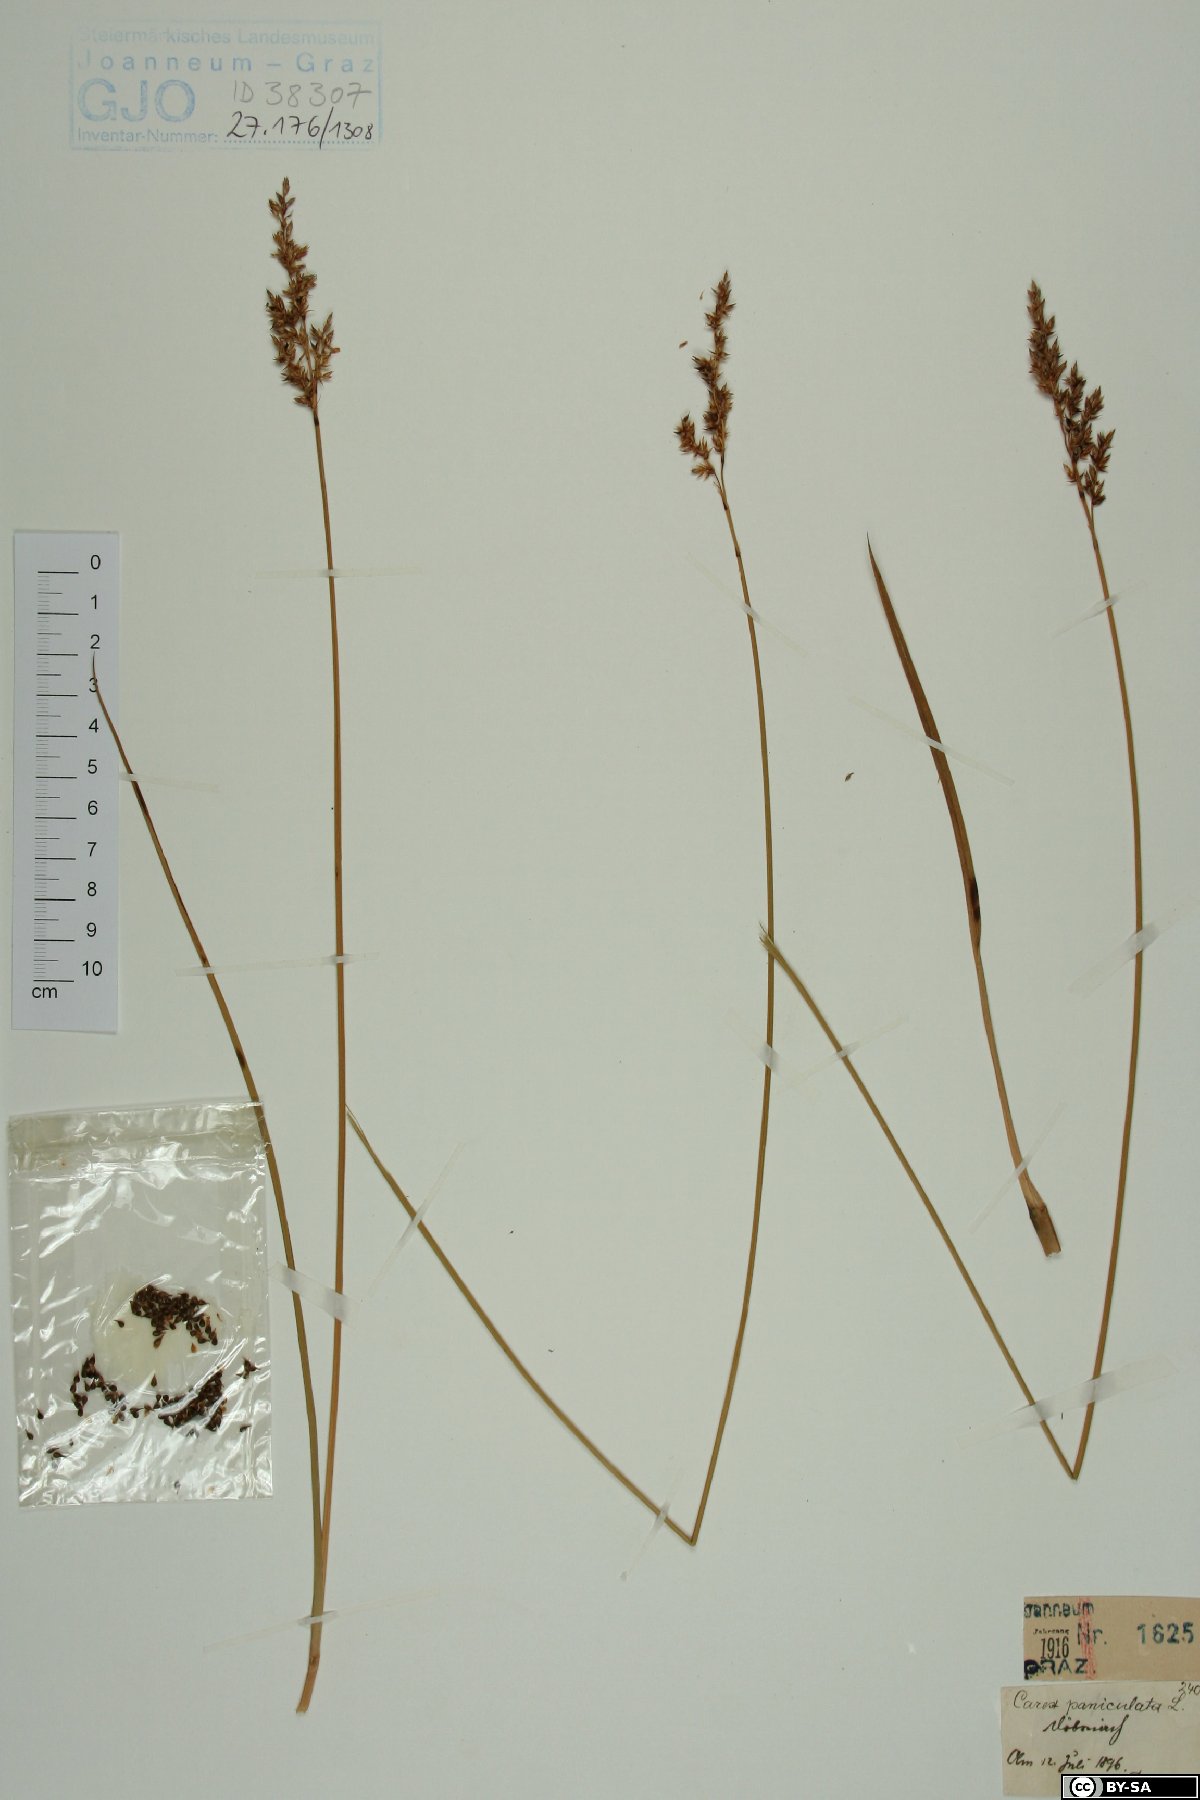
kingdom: Plantae
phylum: Tracheophyta
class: Liliopsida
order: Poales
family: Cyperaceae
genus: Carex
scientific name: Carex paniculata
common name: Greater tussock-sedge
